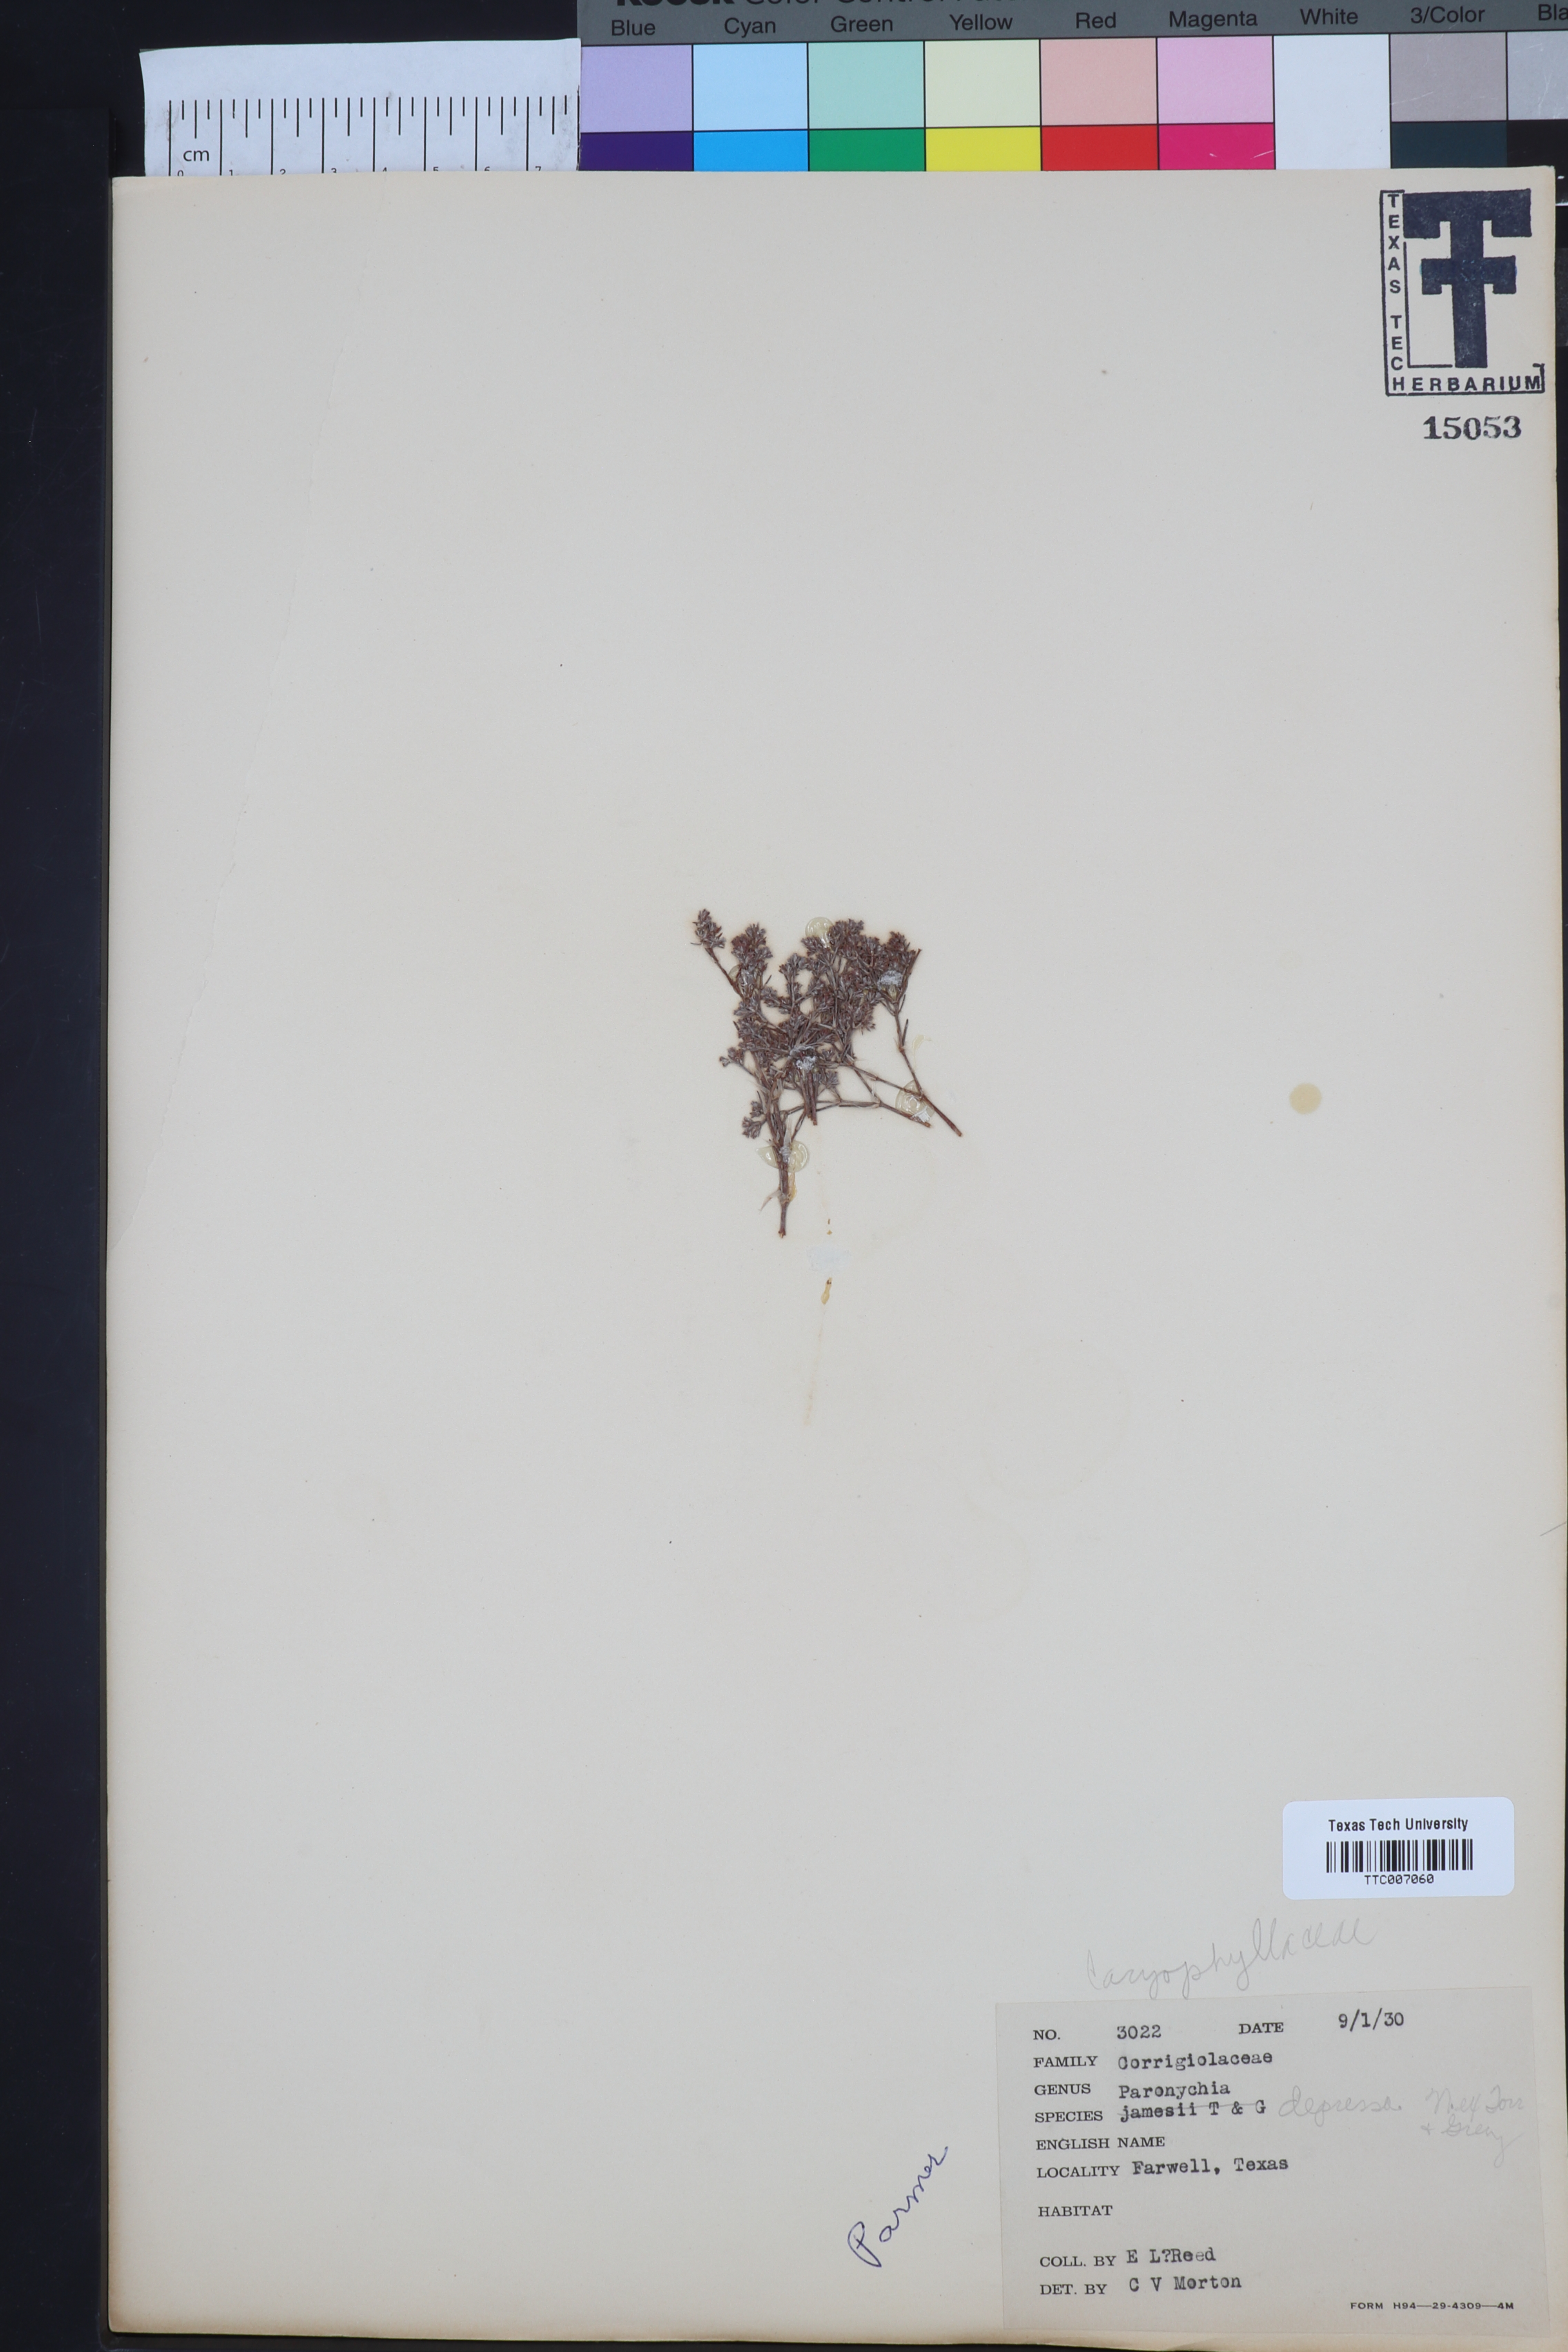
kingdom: Plantae
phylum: Tracheophyta
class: Magnoliopsida
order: Caryophyllales
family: Caryophyllaceae
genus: Paronychia
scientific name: Paronychia jamesii
